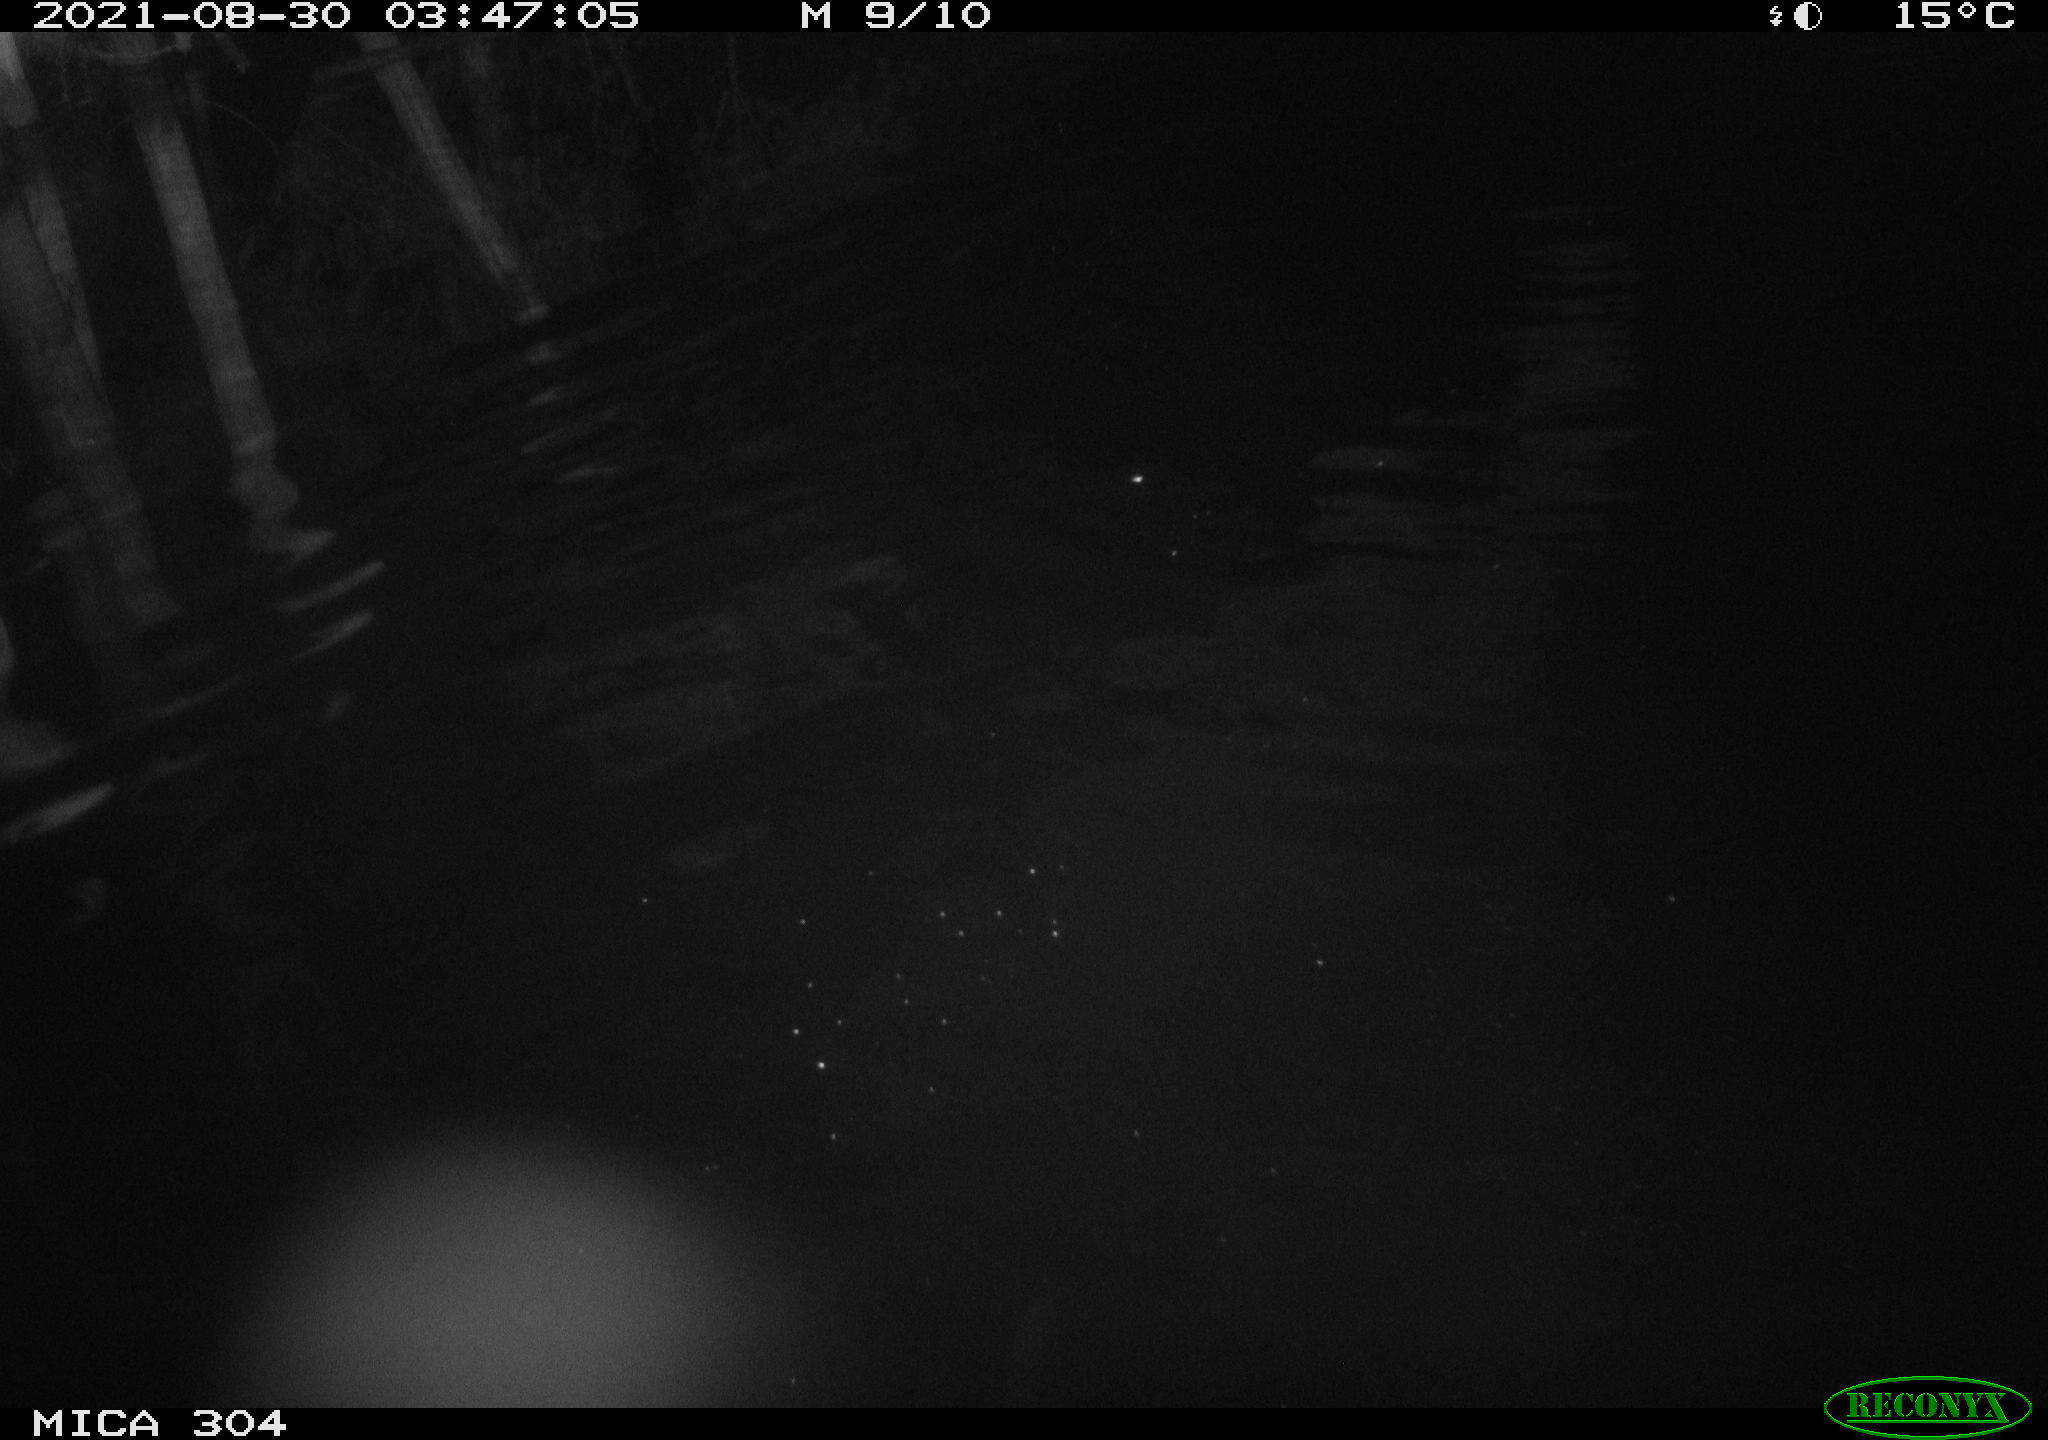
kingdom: Animalia
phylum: Chordata
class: Mammalia
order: Rodentia
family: Cricetidae
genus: Ondatra
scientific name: Ondatra zibethicus
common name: Muskrat
